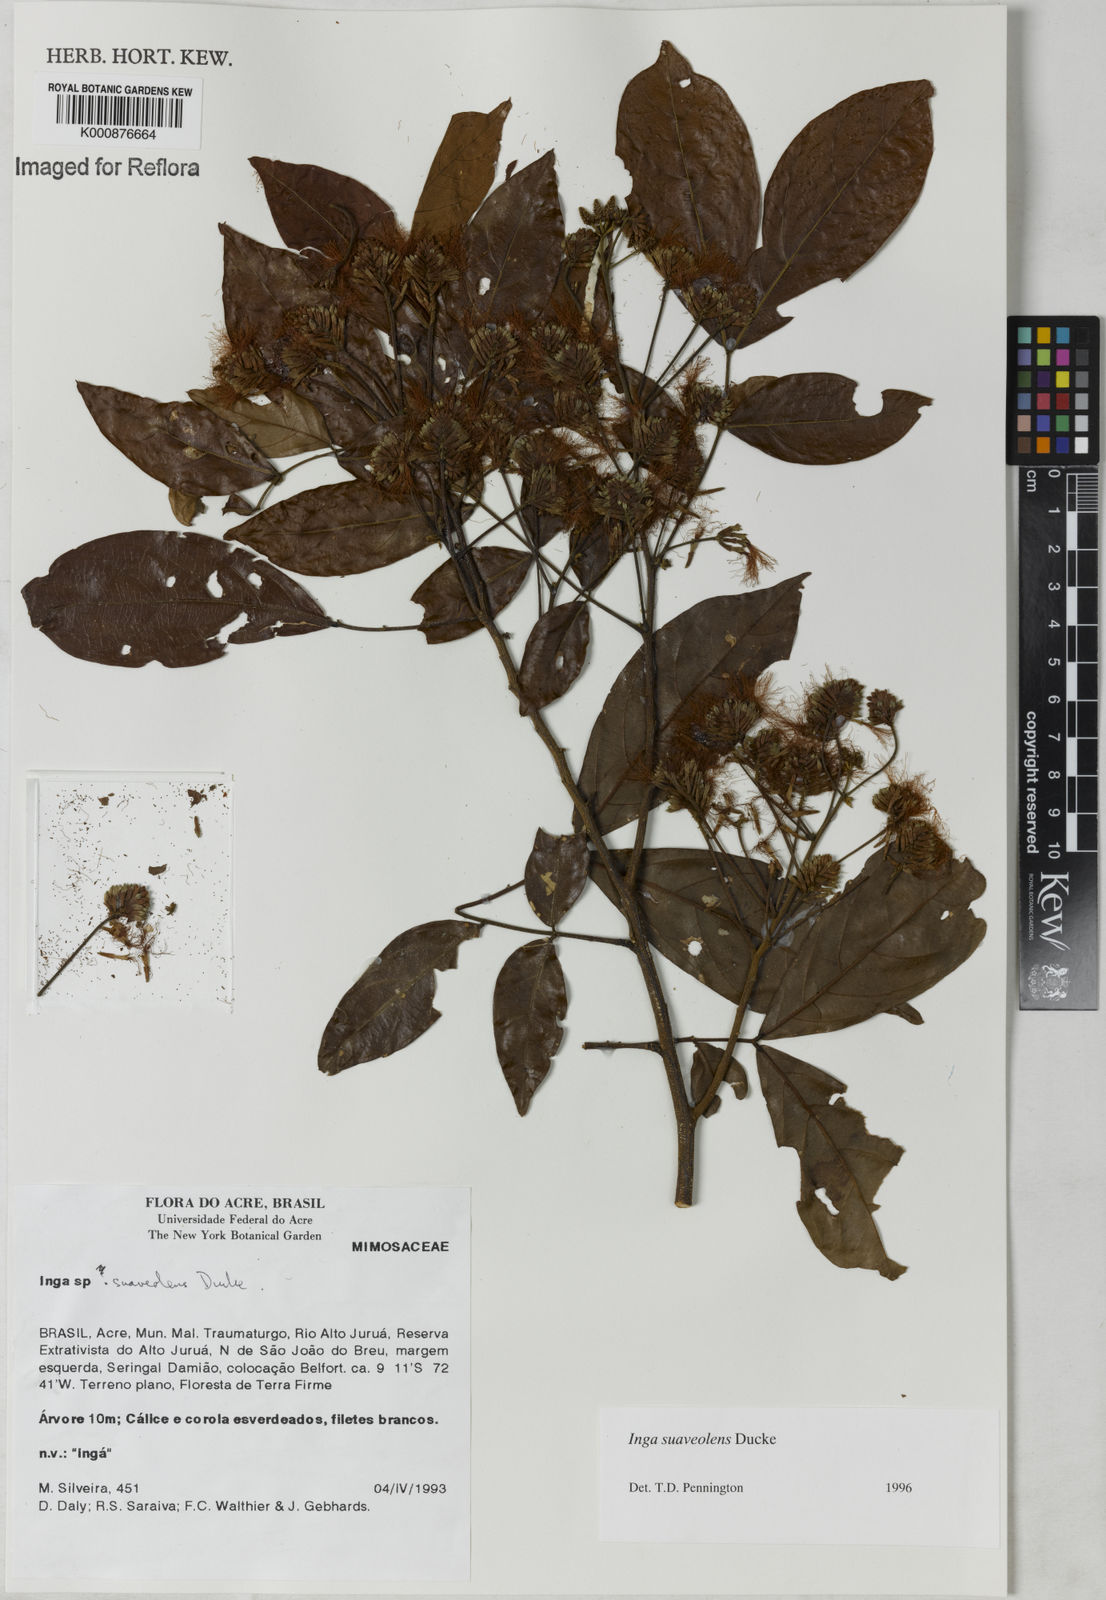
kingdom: Plantae
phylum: Tracheophyta
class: Magnoliopsida
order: Fabales
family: Fabaceae
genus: Inga
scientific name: Inga suaveolens
